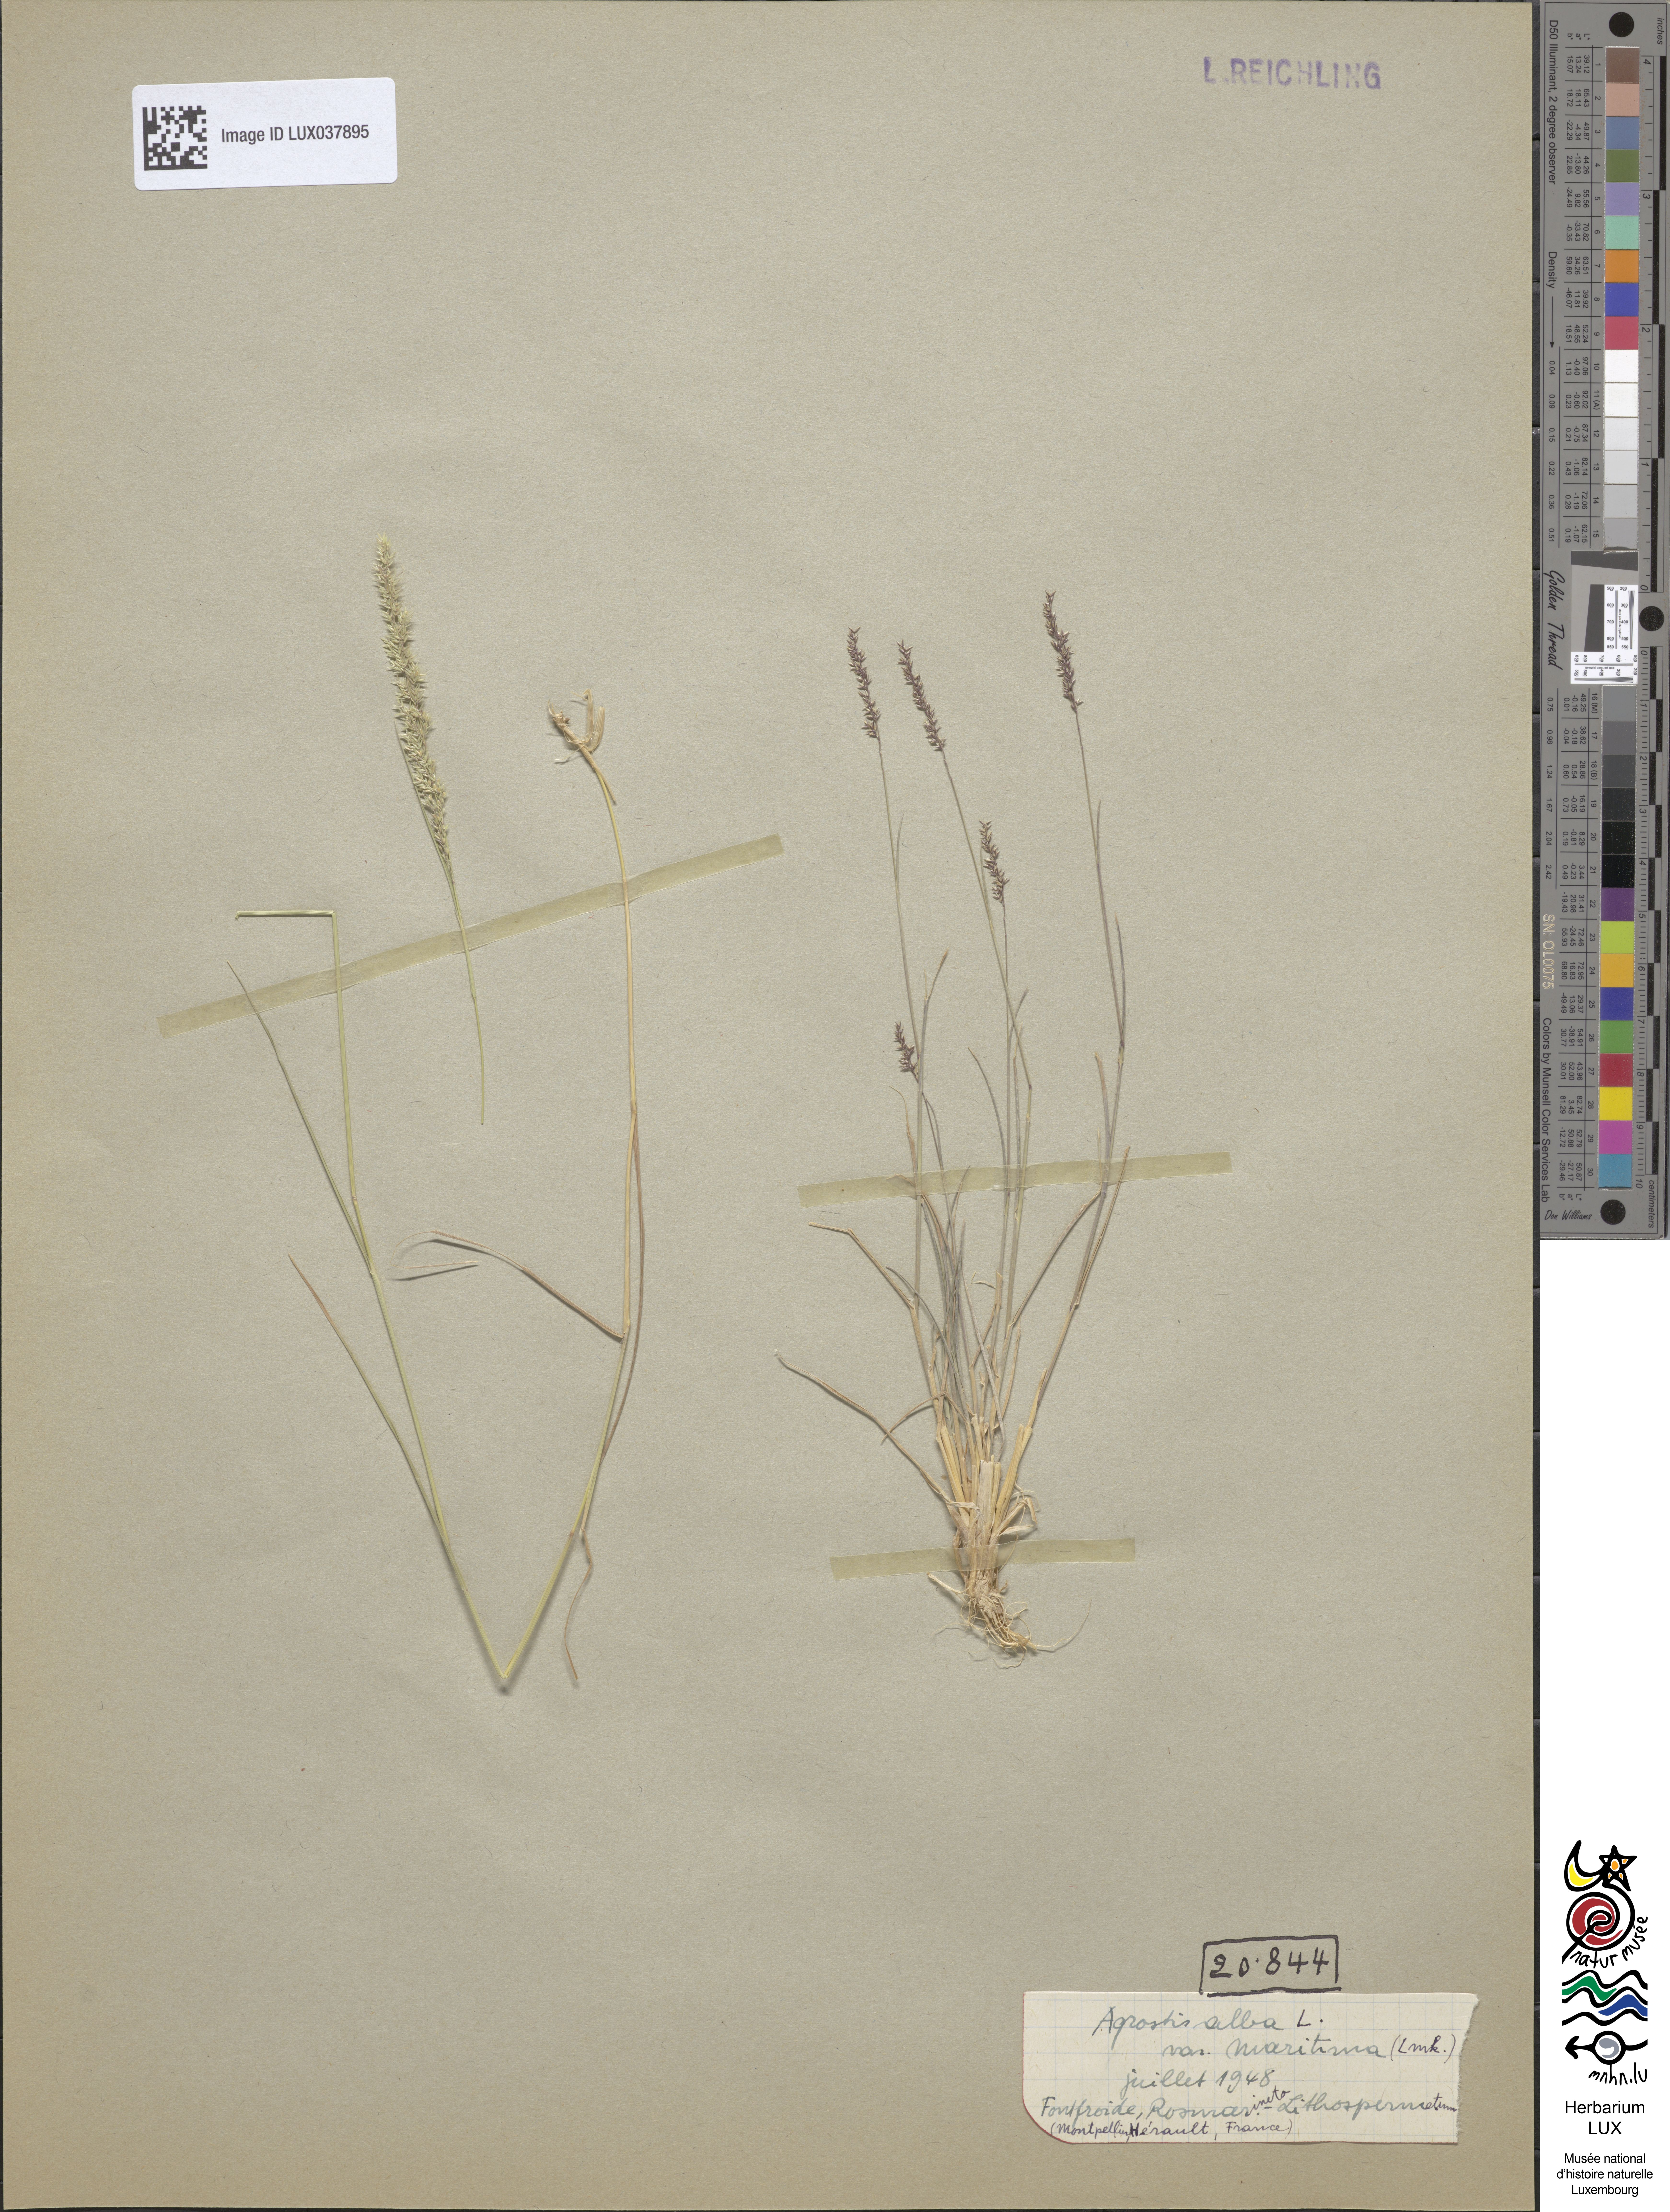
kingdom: Plantae
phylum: Tracheophyta
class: Liliopsida
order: Poales
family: Poaceae
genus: Agrostis
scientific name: Agrostis stolonifera
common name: Creeping bentgrass
